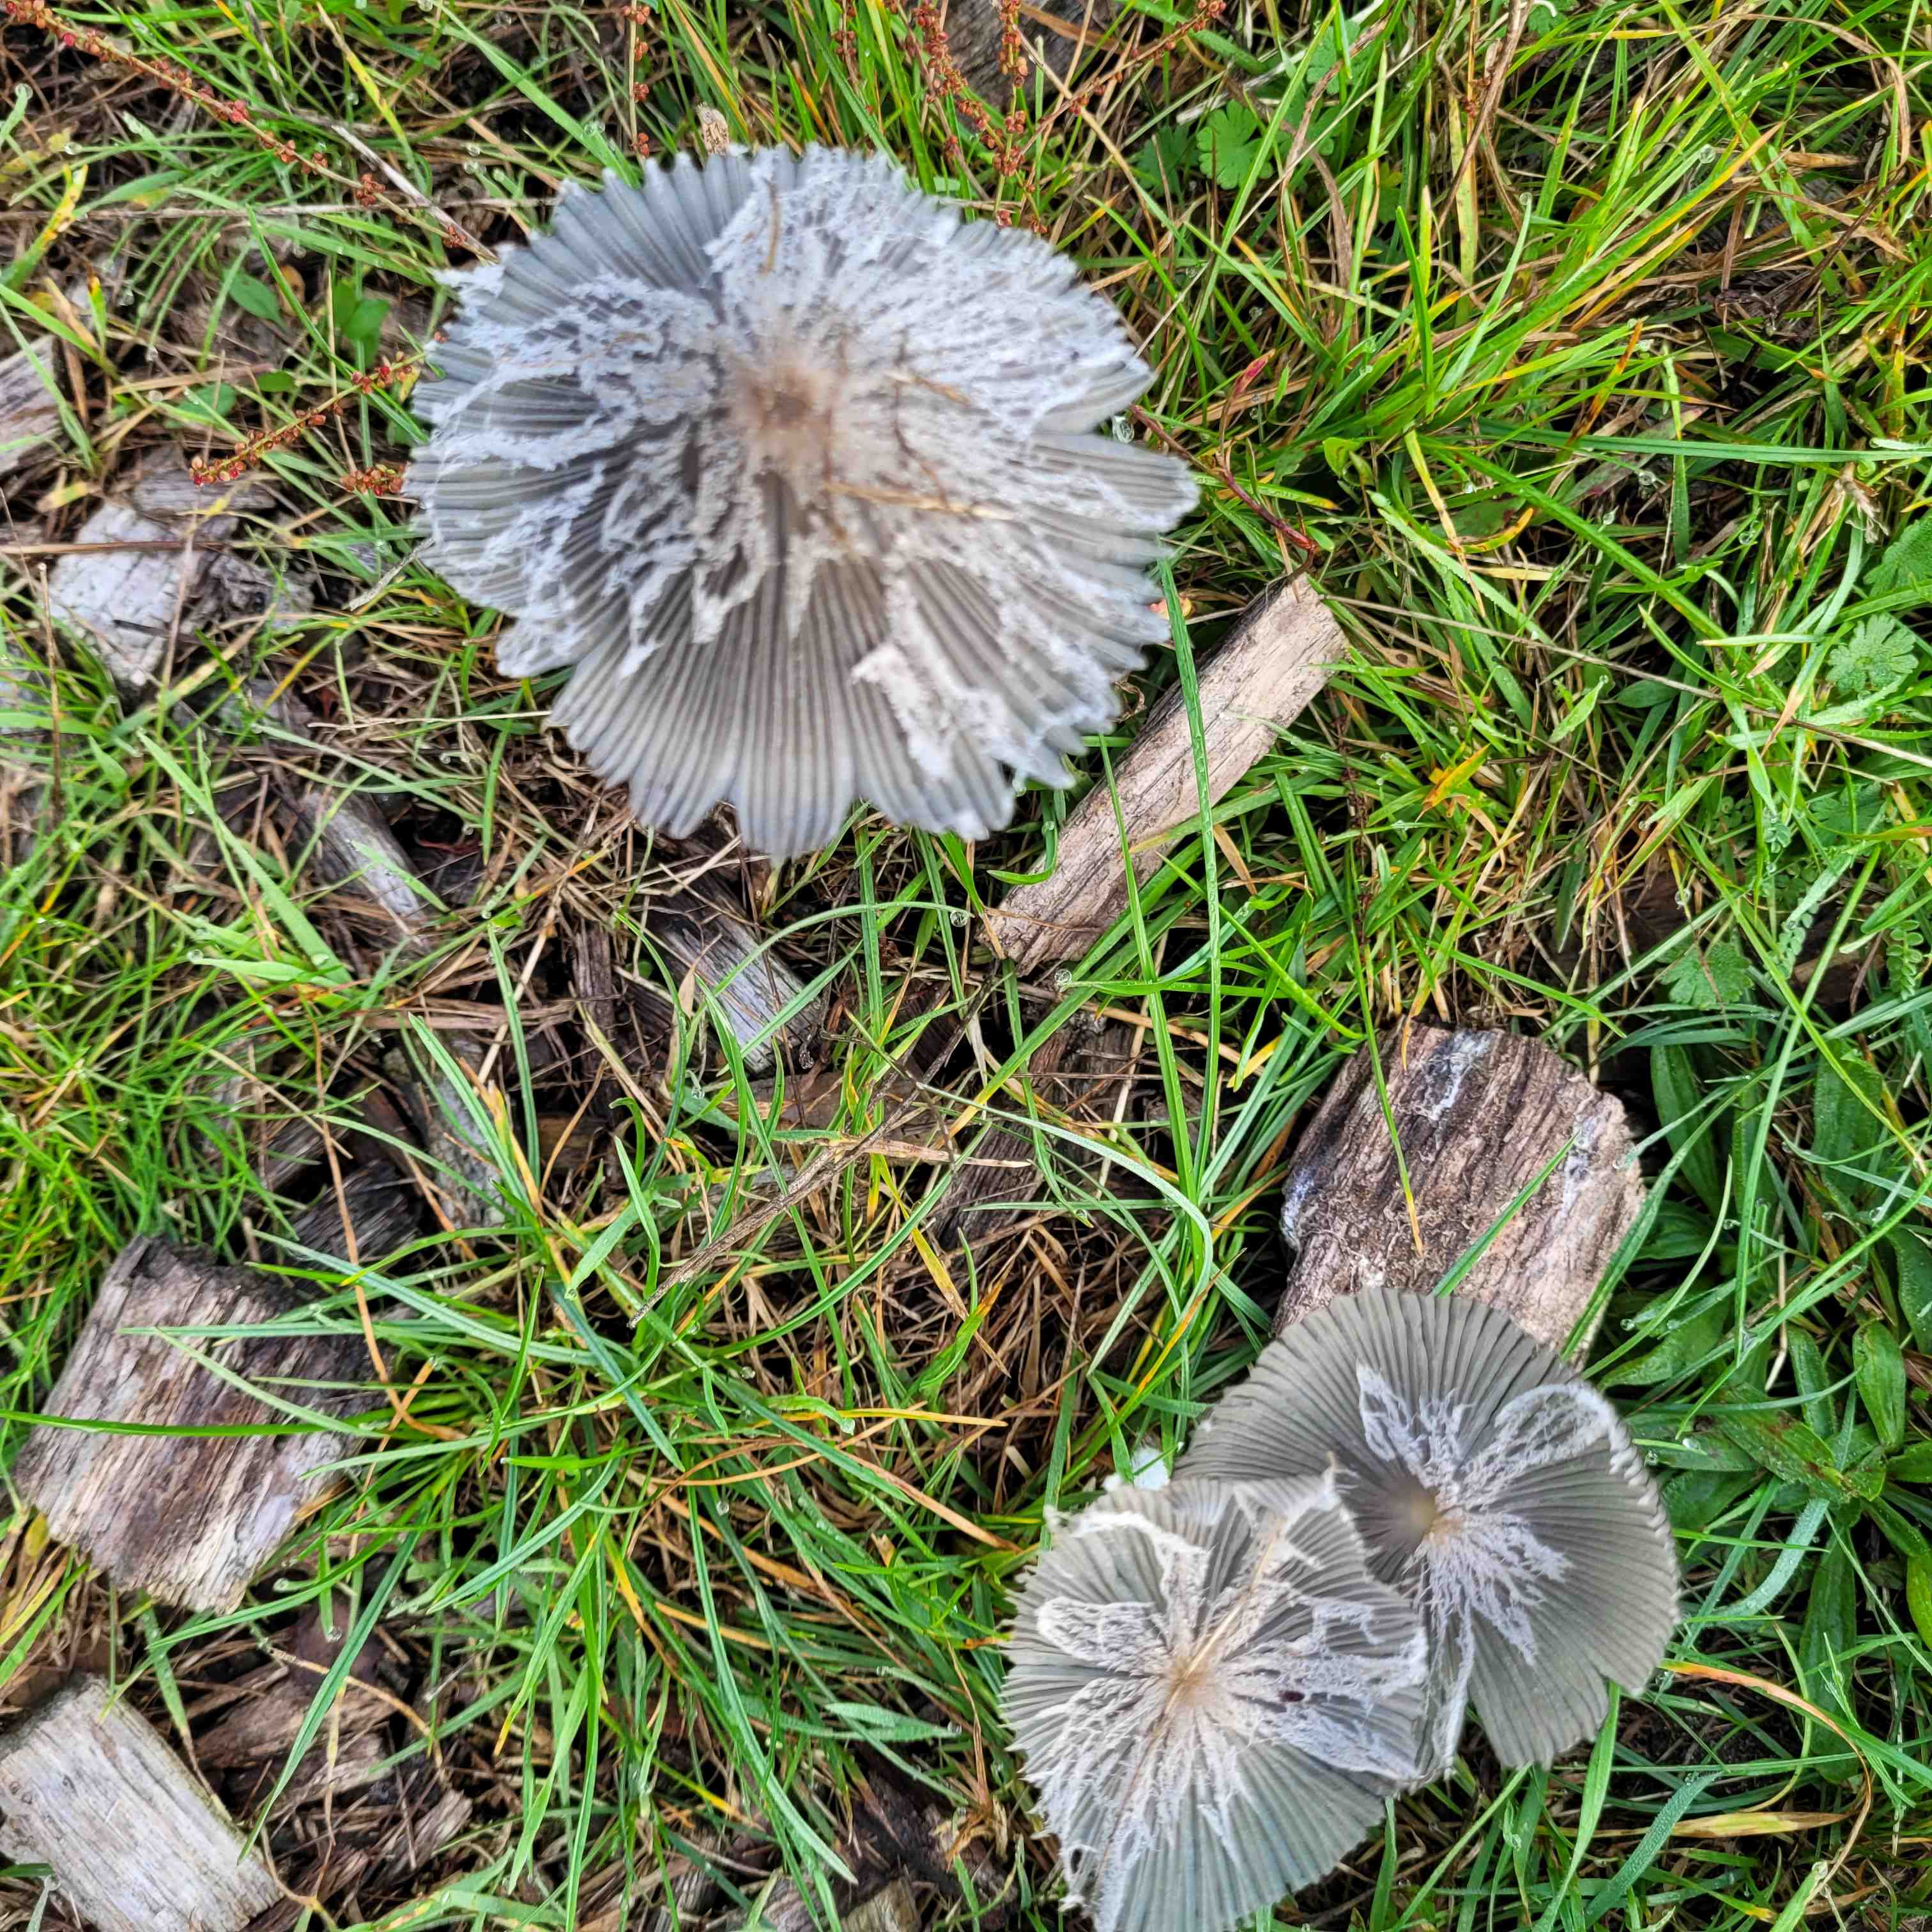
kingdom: Fungi
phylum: Basidiomycota
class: Agaricomycetes
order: Agaricales
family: Psathyrellaceae
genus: Coprinopsis
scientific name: Coprinopsis lagopus
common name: dunstokket blækhat
